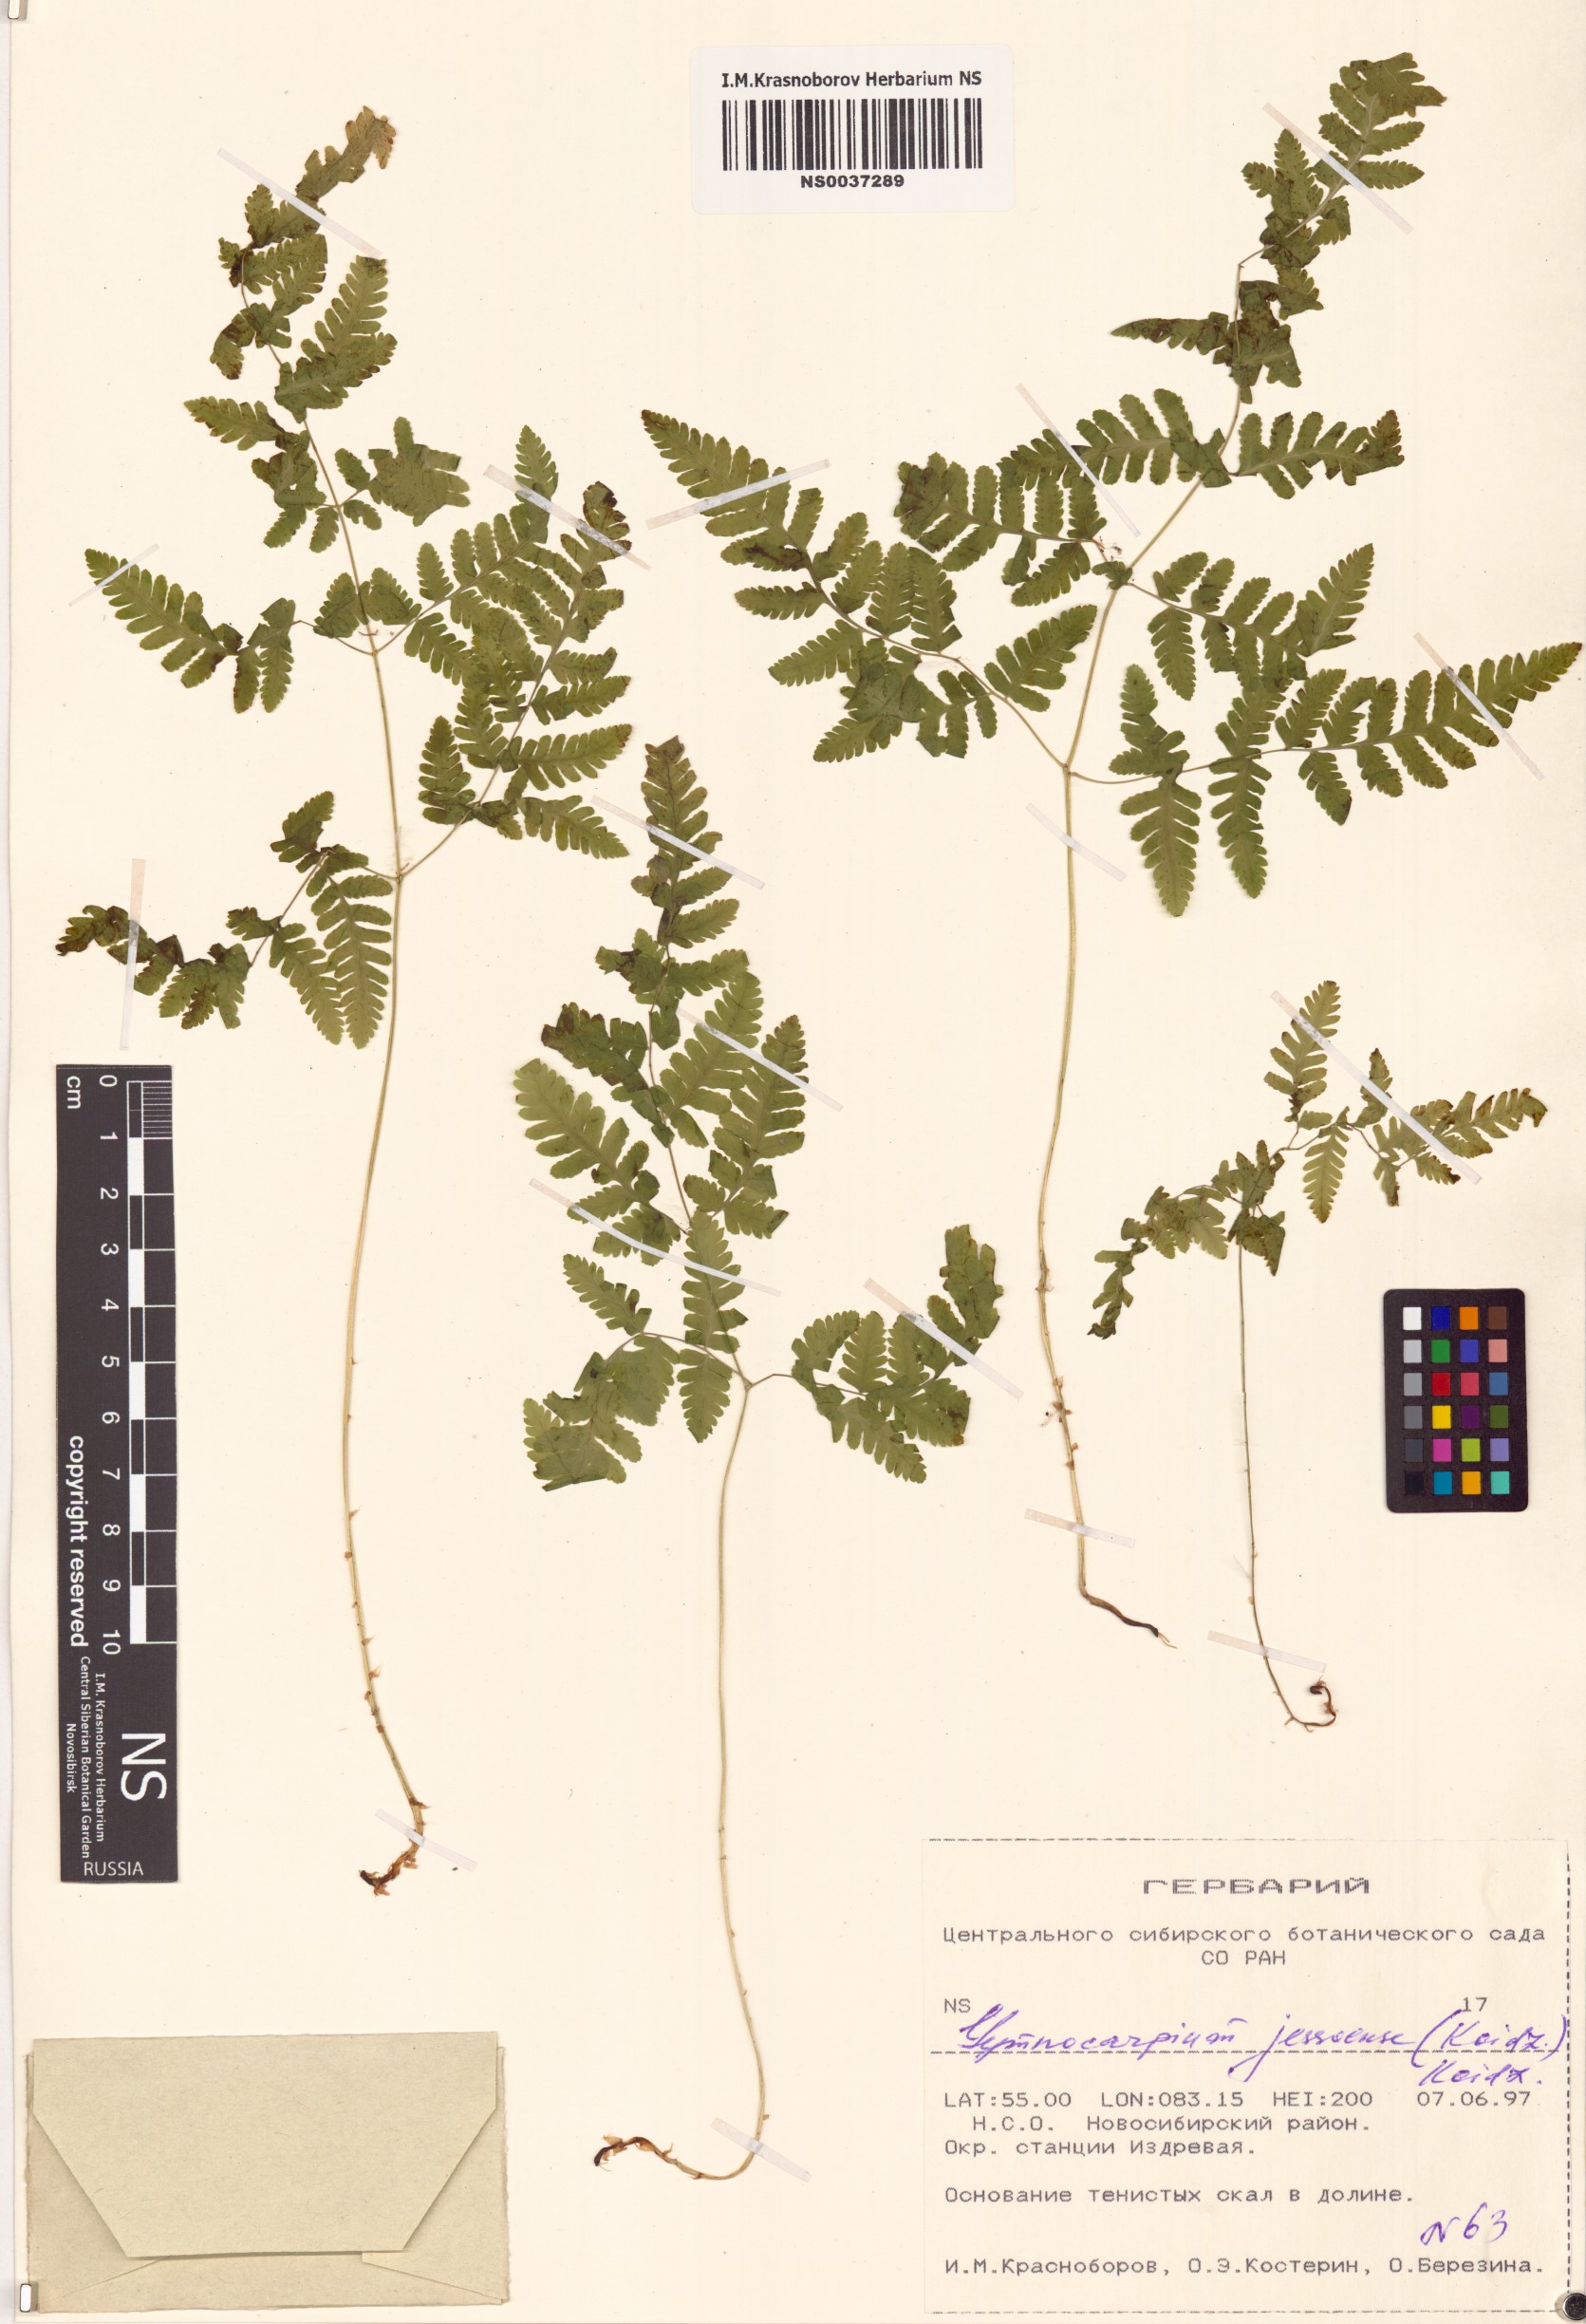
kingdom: Plantae
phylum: Tracheophyta
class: Polypodiopsida
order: Polypodiales
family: Cystopteridaceae
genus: Gymnocarpium
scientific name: Gymnocarpium jessoense
